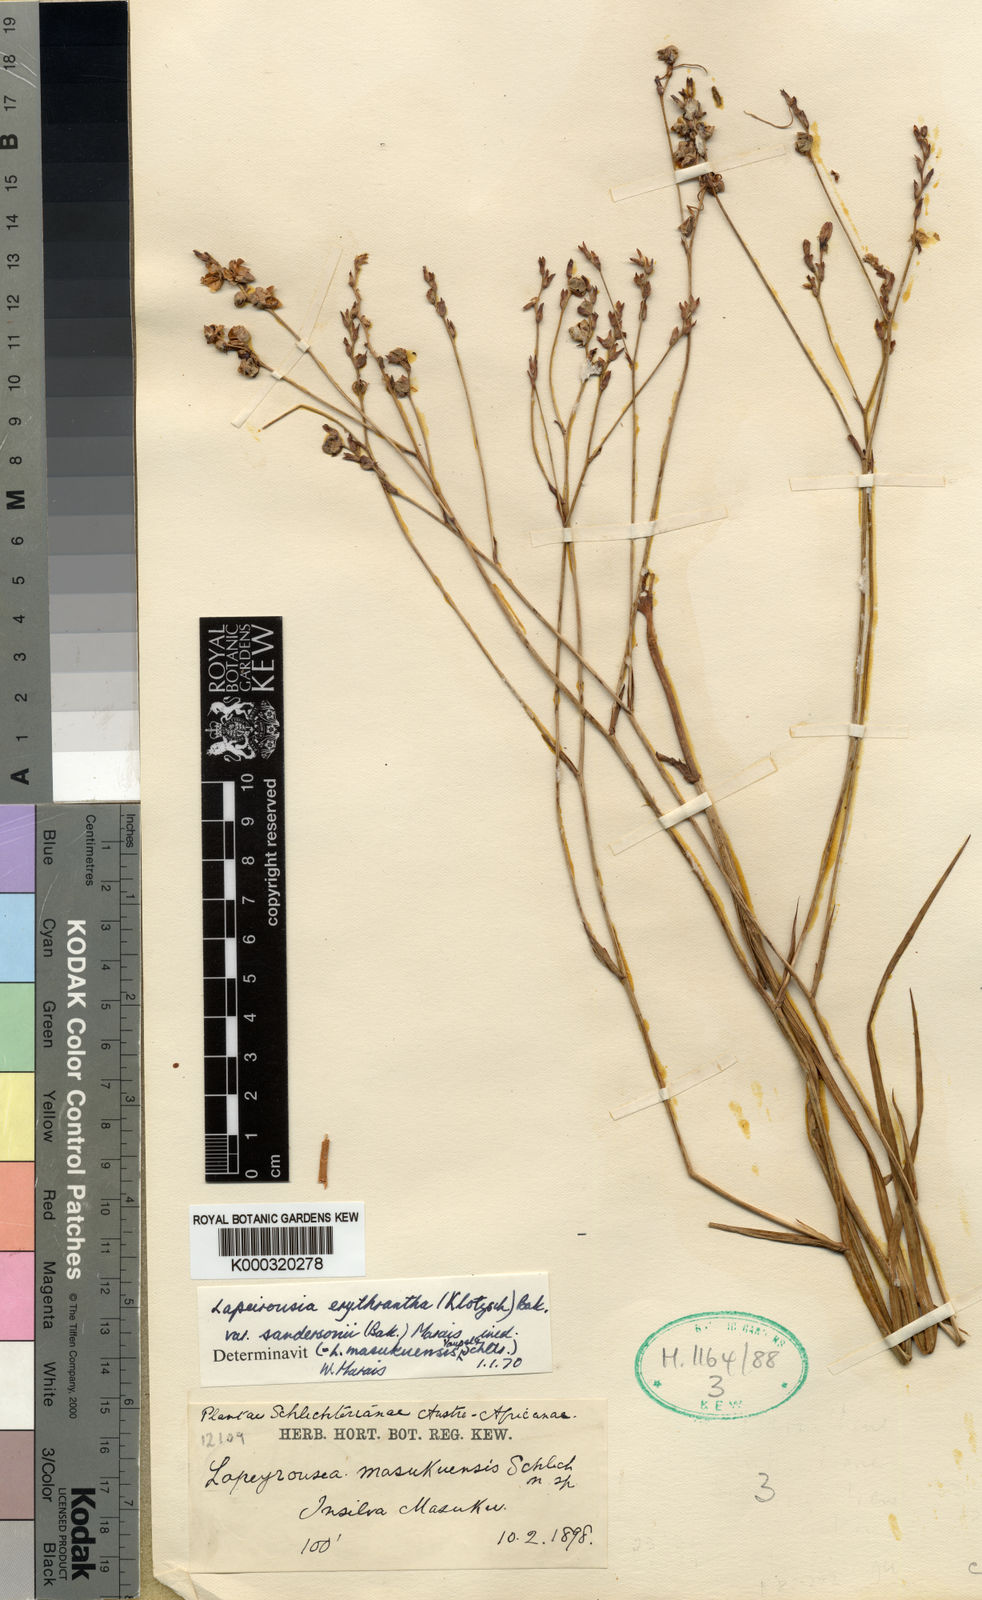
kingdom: Plantae
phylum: Tracheophyta
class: Liliopsida
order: Asparagales
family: Iridaceae
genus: Afrosolen
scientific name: Afrosolen masukuensis
